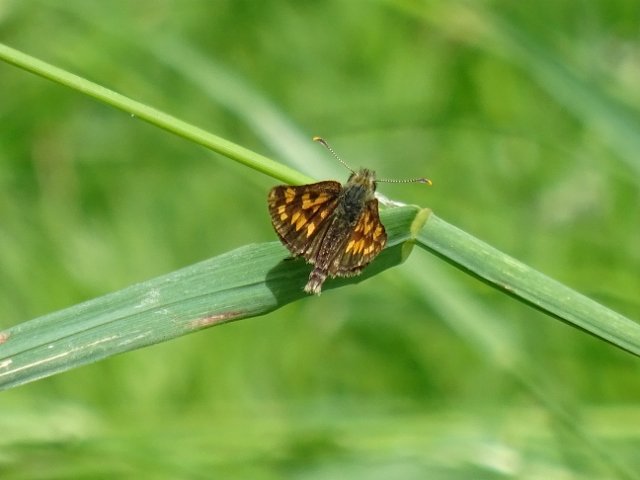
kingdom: Animalia
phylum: Arthropoda
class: Insecta
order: Lepidoptera
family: Hesperiidae
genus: Carterocephalus
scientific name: Carterocephalus palaemon
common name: Chequered Skipper
